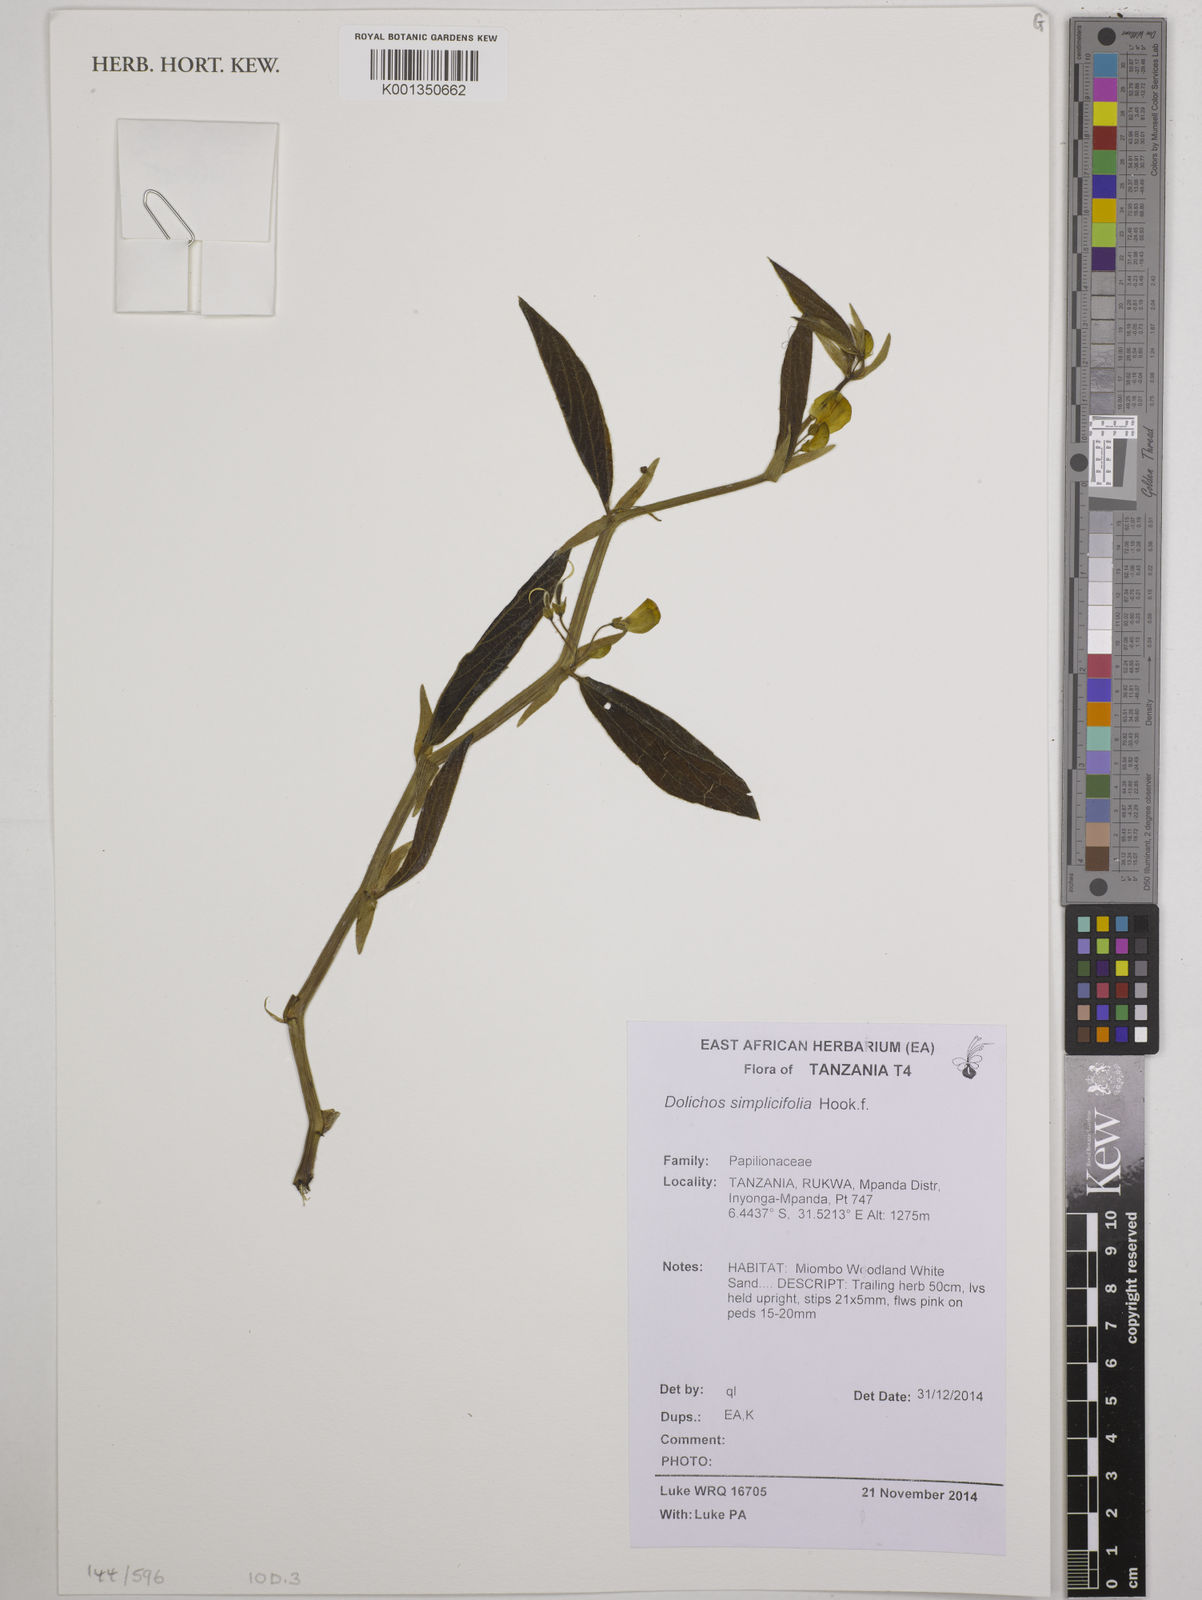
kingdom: Plantae
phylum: Tracheophyta
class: Magnoliopsida
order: Fabales
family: Fabaceae
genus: Dolichos
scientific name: Dolichos simplicifolius
